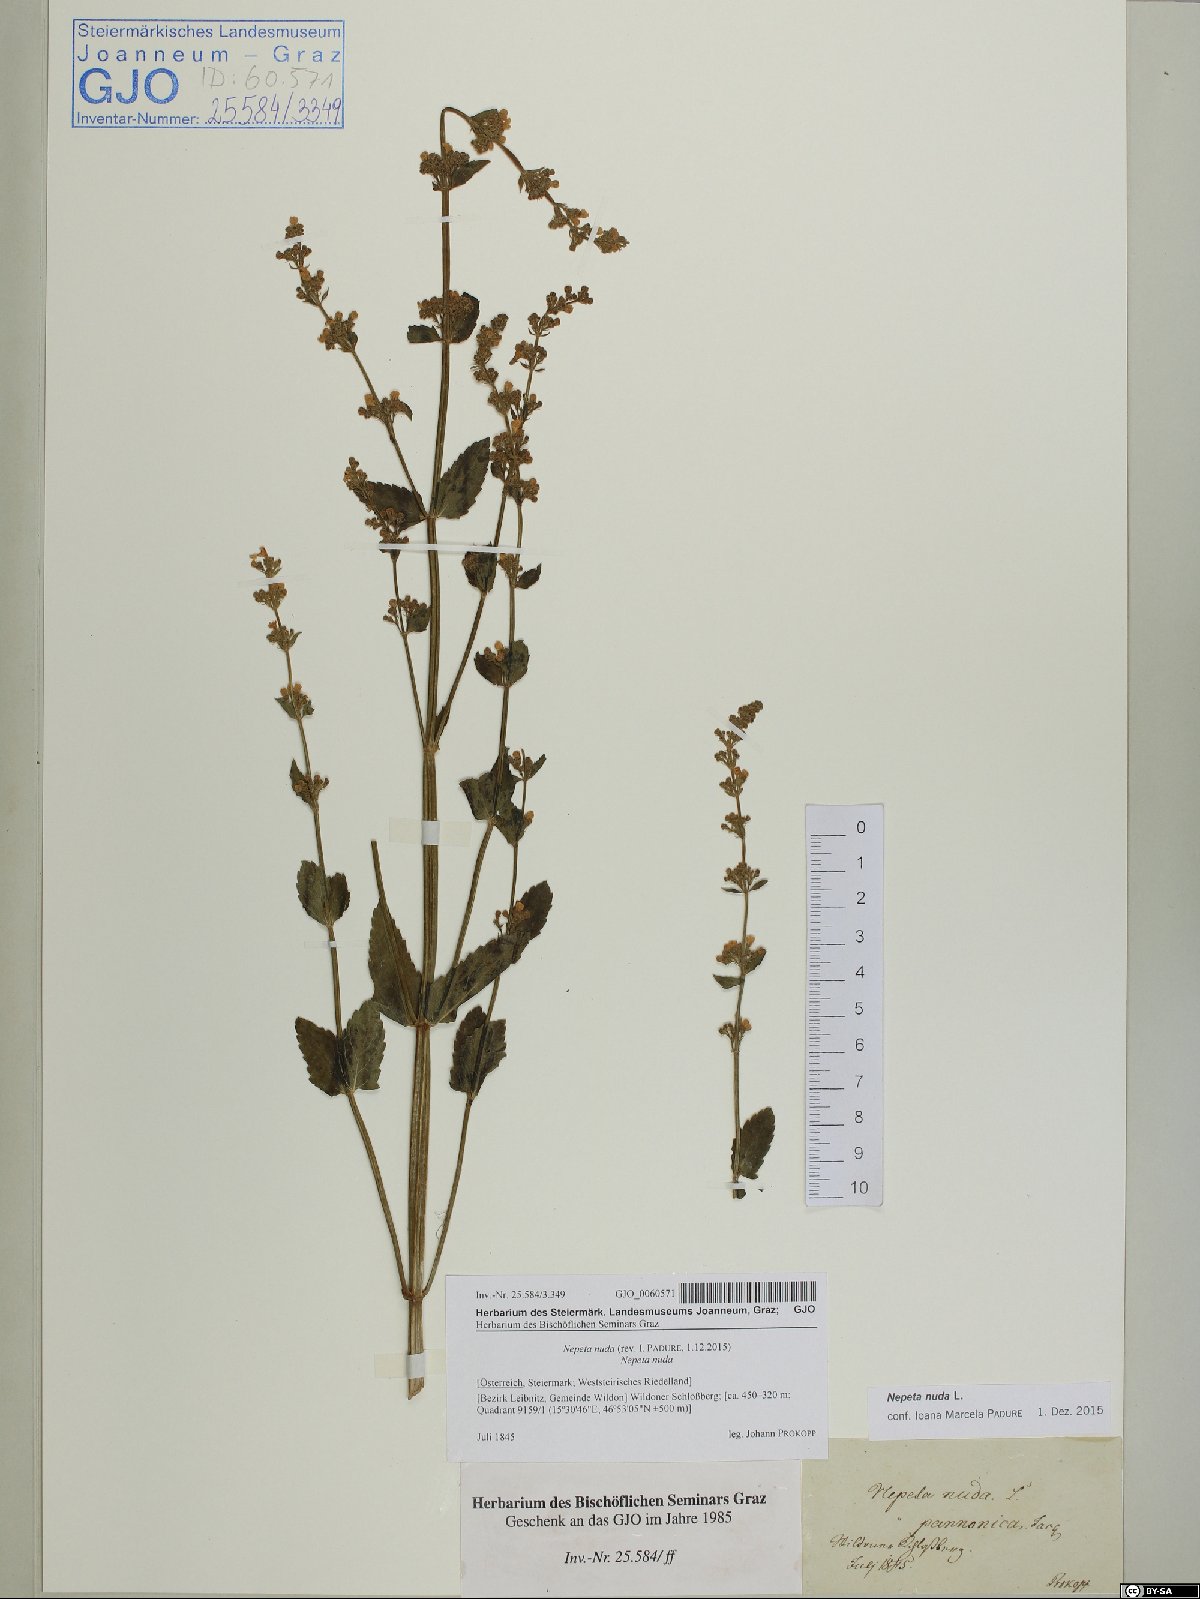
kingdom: Plantae
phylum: Tracheophyta
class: Magnoliopsida
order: Lamiales
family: Lamiaceae
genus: Nepeta
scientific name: Nepeta nuda
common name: Hairless catmint
